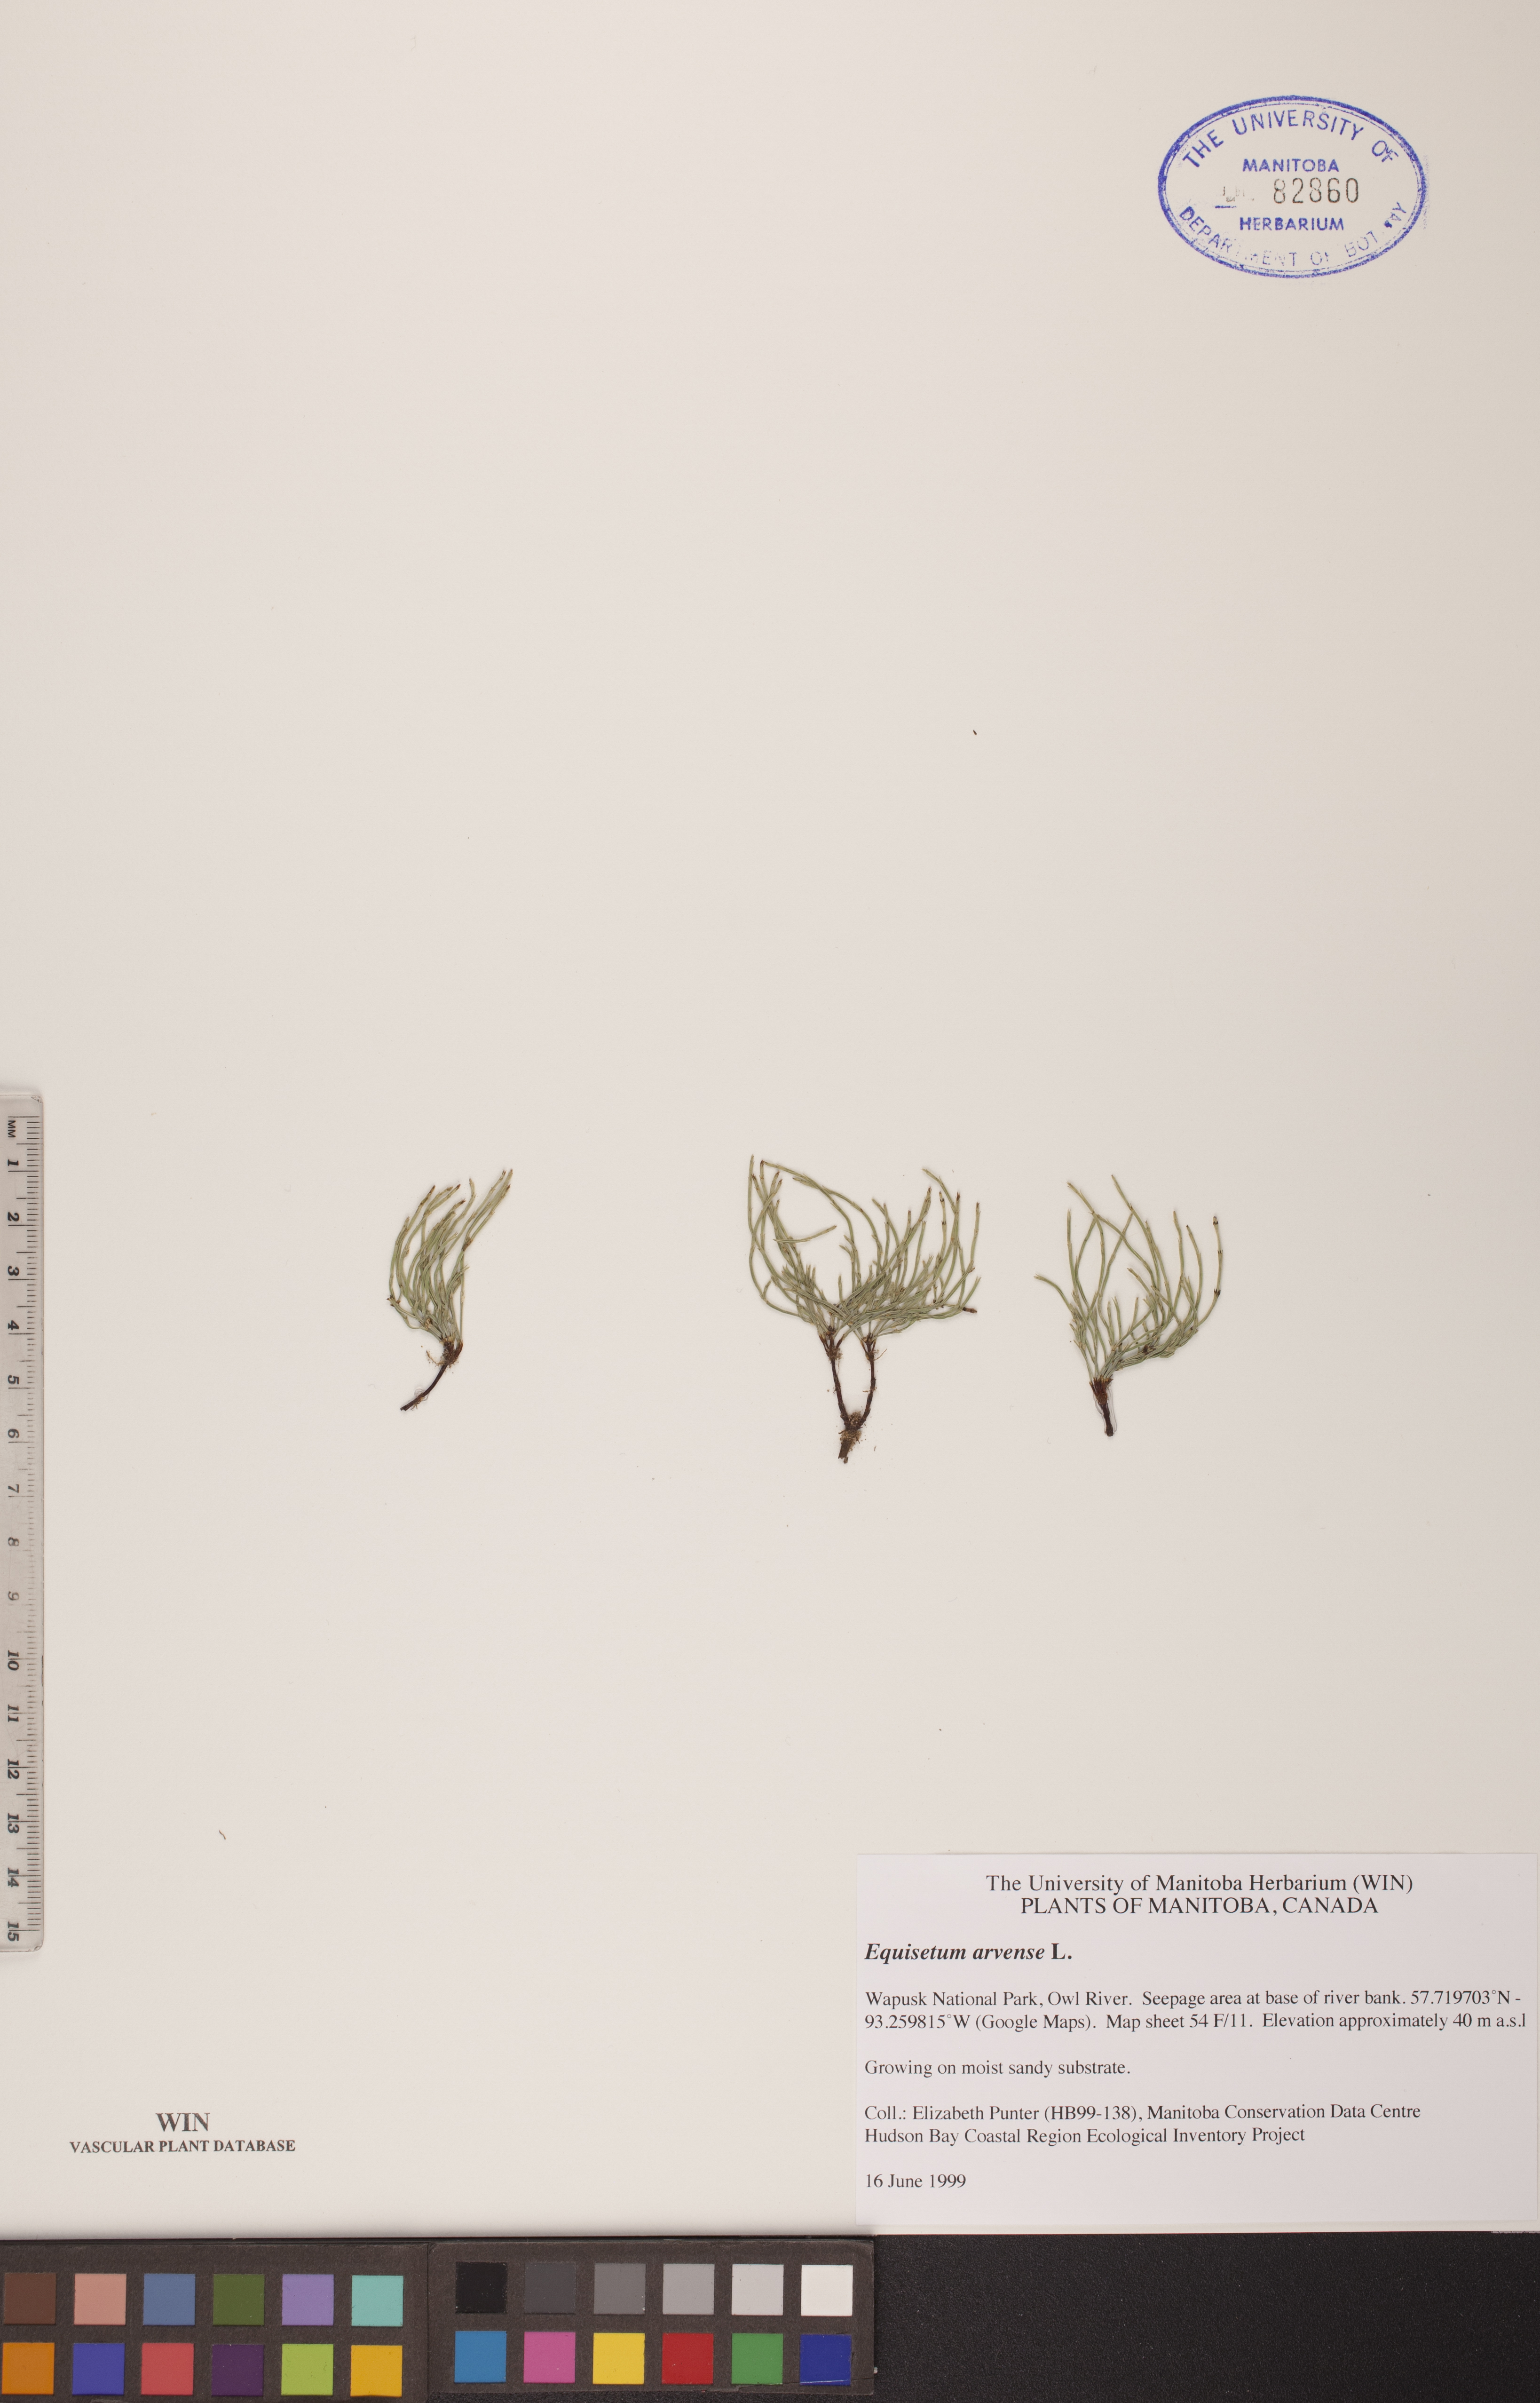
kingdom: Plantae
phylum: Tracheophyta
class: Polypodiopsida
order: Equisetales
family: Equisetaceae
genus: Equisetum
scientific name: Equisetum arvense
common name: Field horsetail
